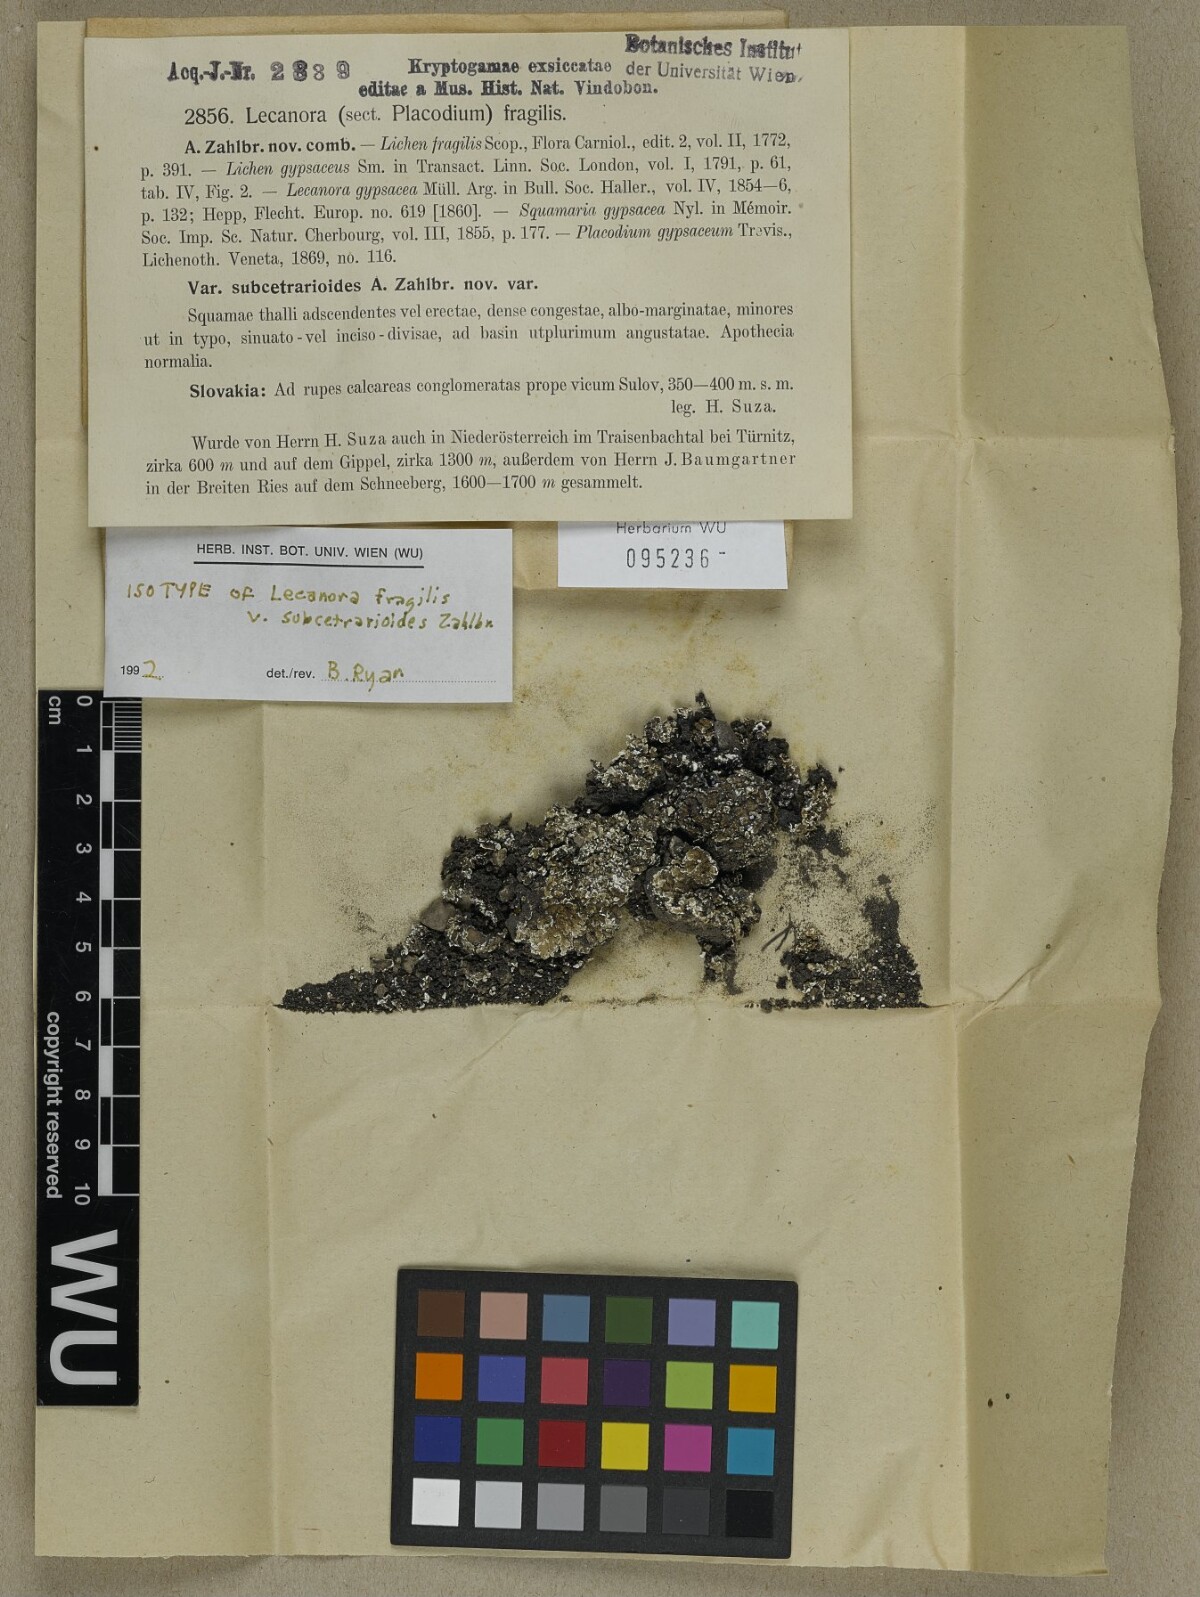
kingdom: Fungi
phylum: Ascomycota
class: Lecanoromycetes
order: Lecanorales
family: Stereocaulaceae
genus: Squamarina
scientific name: Squamarina gypsacea
